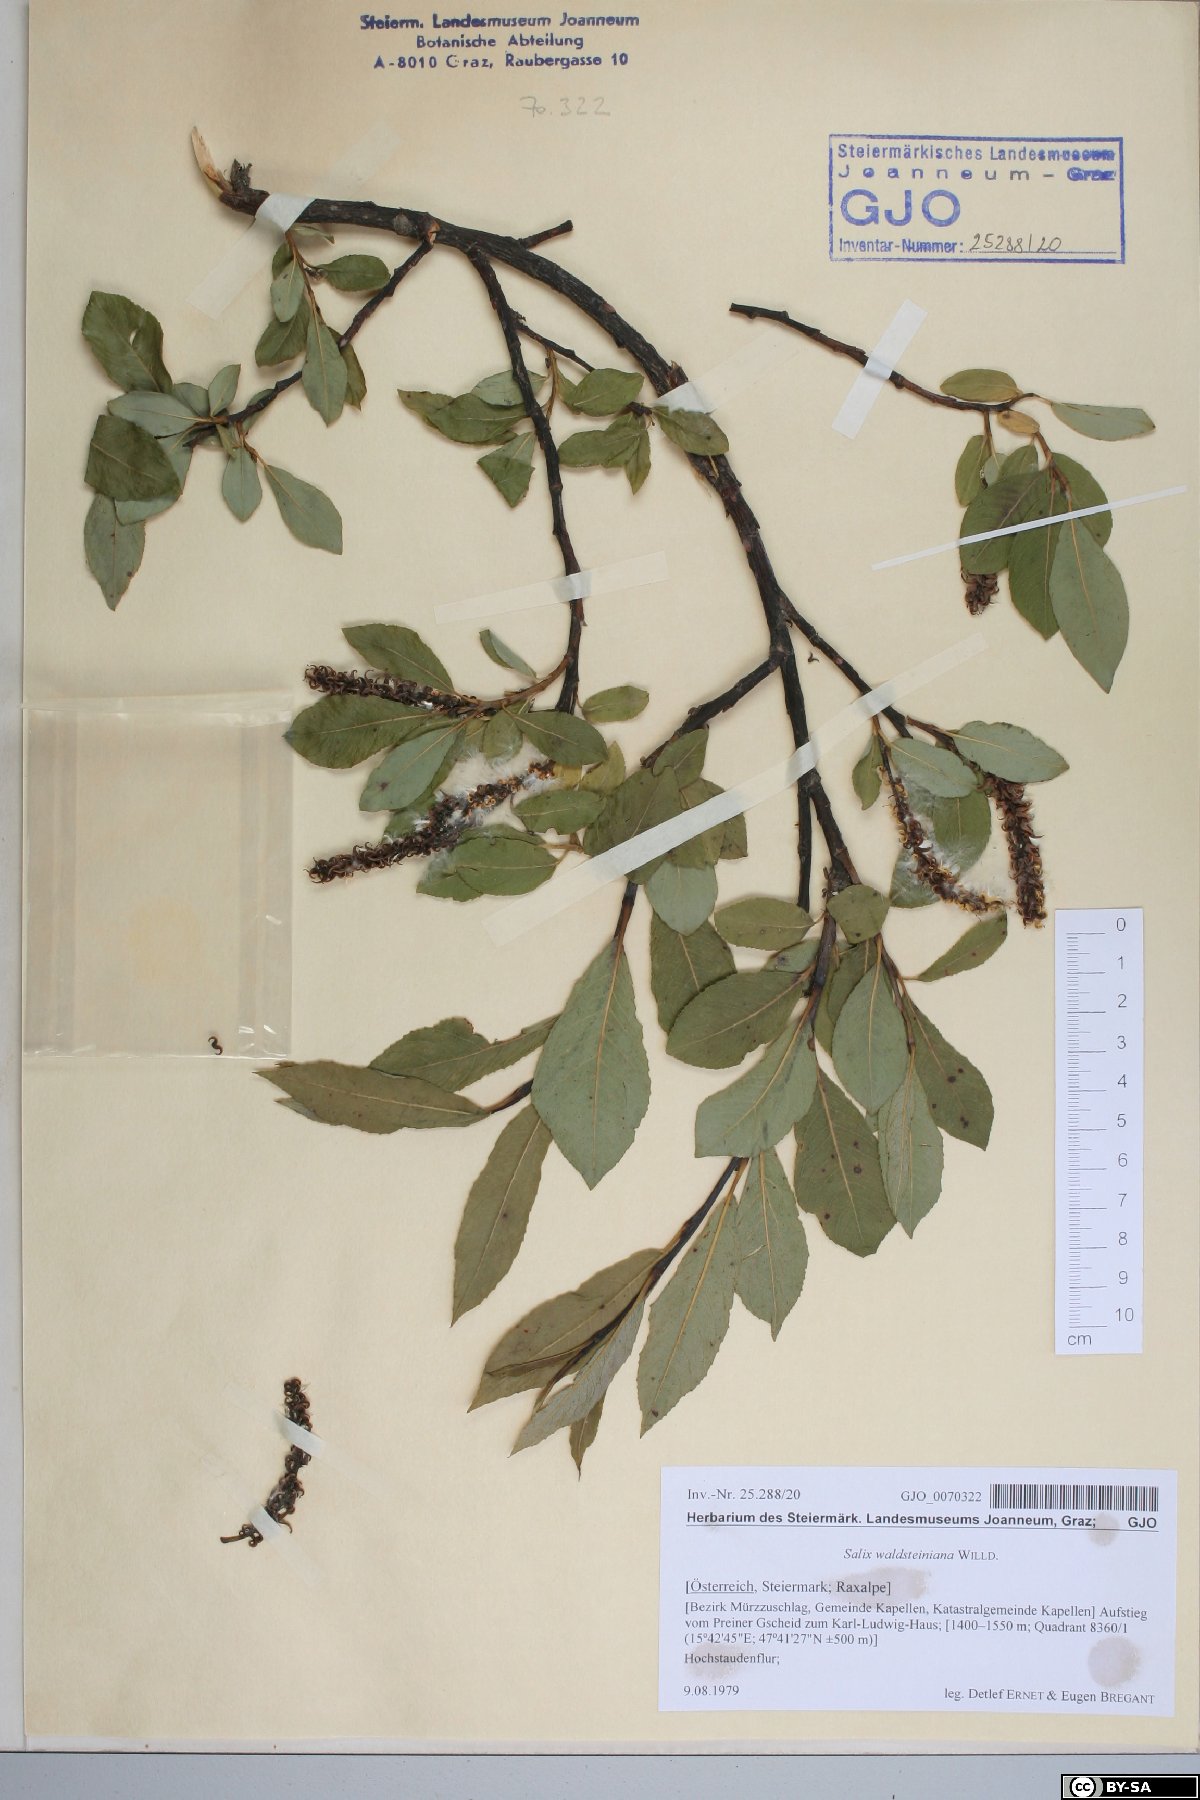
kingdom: Plantae
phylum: Tracheophyta
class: Magnoliopsida
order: Malpighiales
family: Salicaceae
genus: Salix
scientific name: Salix waldsteiniana
